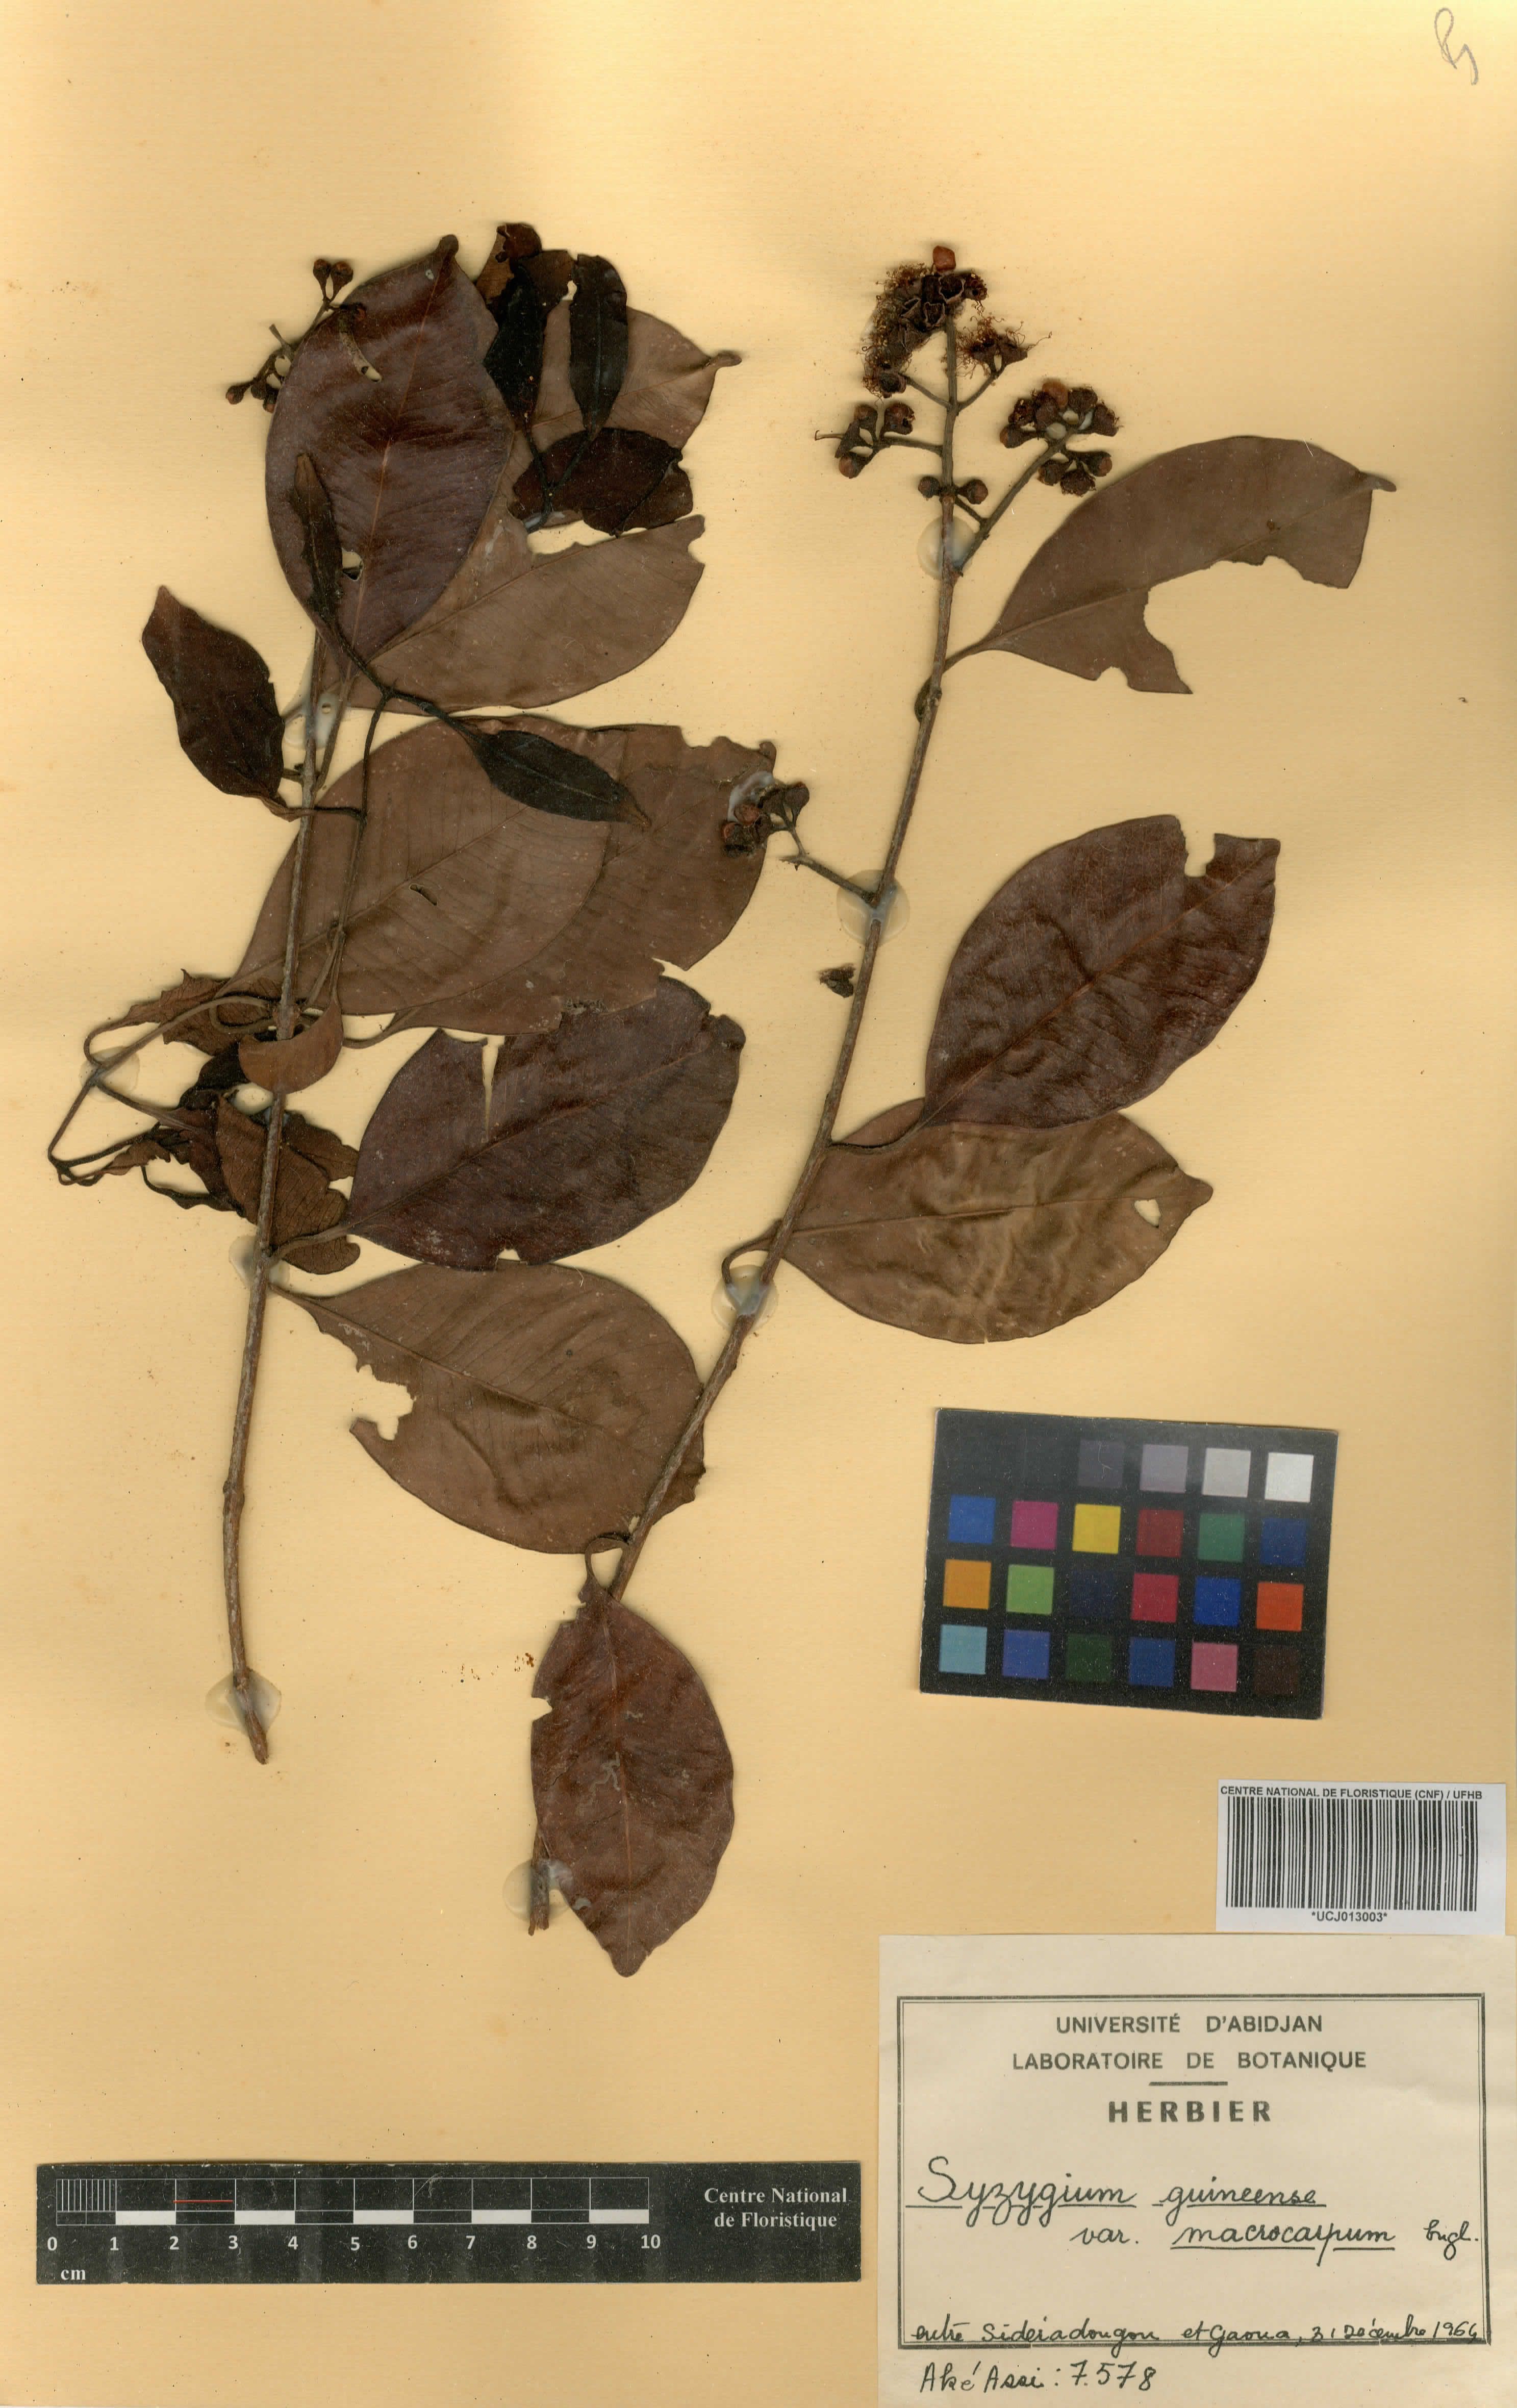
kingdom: Plantae
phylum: Tracheophyta
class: Magnoliopsida
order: Myrtales
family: Myrtaceae
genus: Syzygium
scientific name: Syzygium guineense
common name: Water-pear
